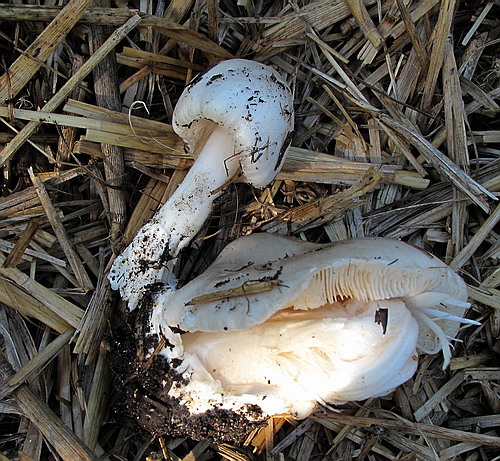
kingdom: Fungi
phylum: Basidiomycota
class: Agaricomycetes
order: Agaricales
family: Pluteaceae
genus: Volvopluteus
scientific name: Volvopluteus gloiocephalus
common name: høj posesvamp
